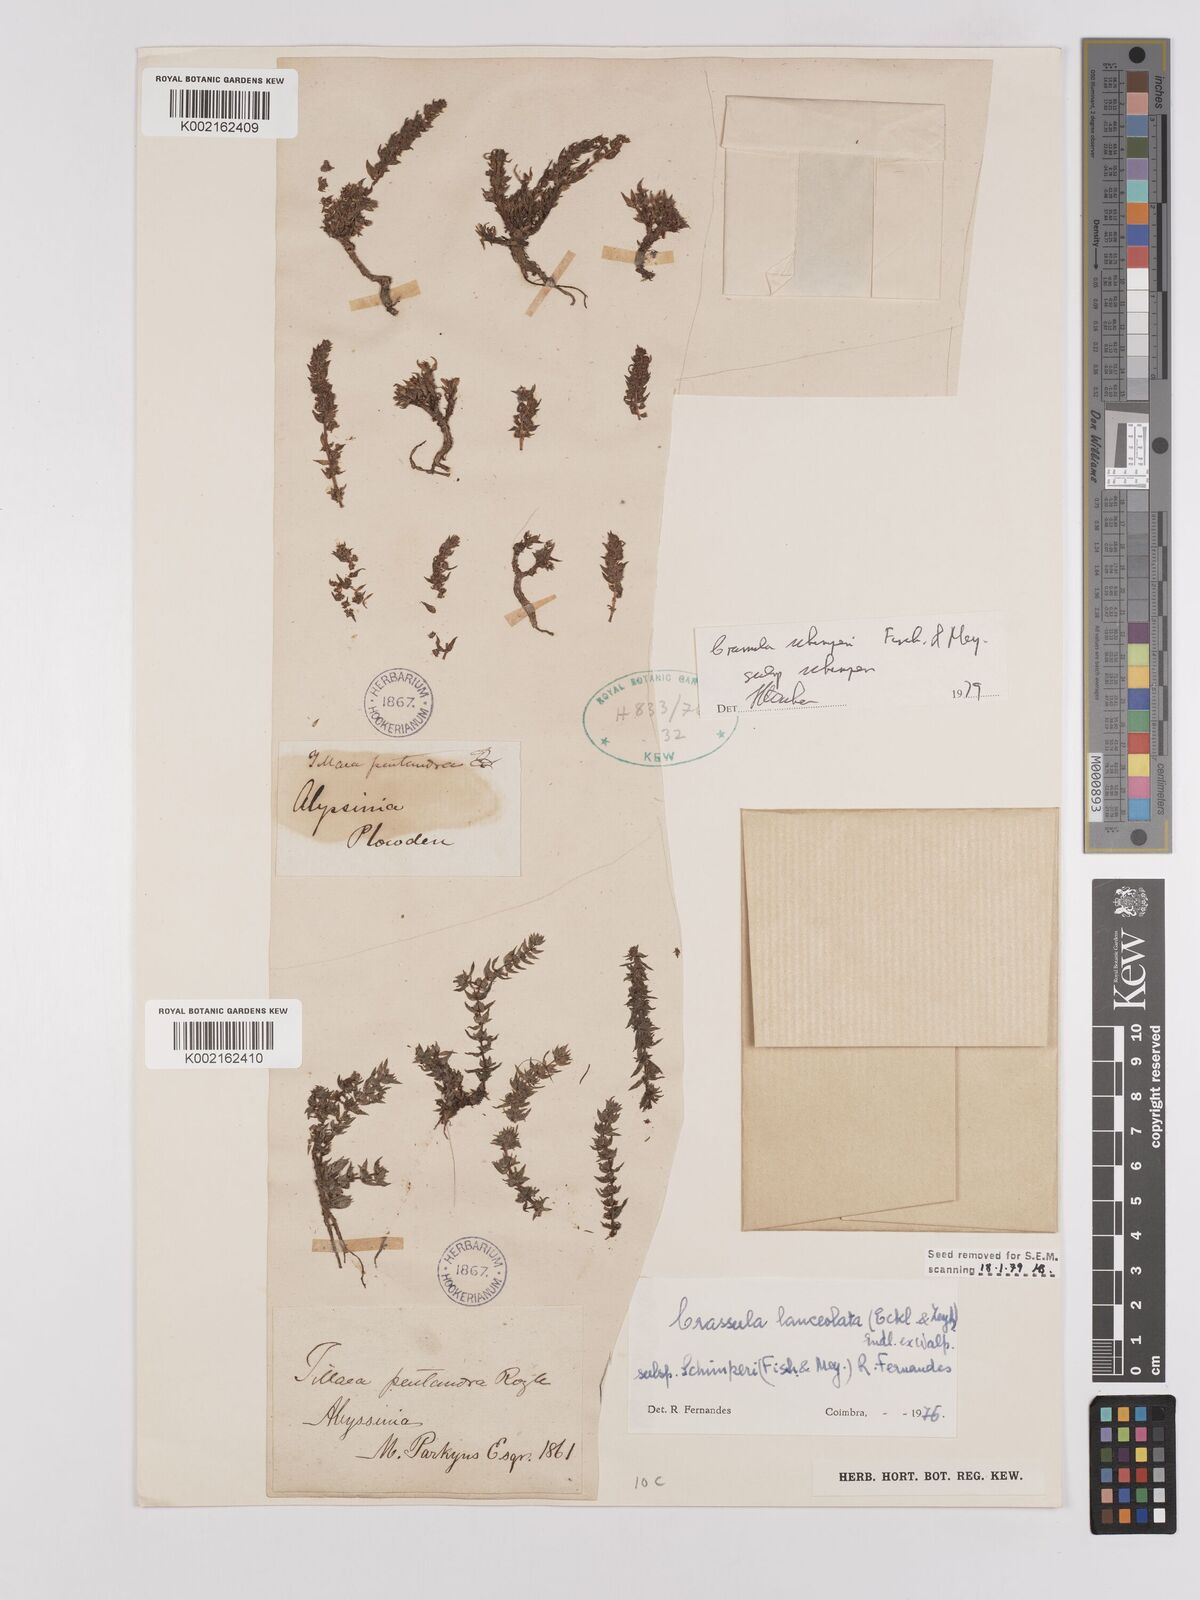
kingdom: Plantae
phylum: Tracheophyta
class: Magnoliopsida
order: Saxifragales
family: Crassulaceae
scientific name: Crassulaceae
